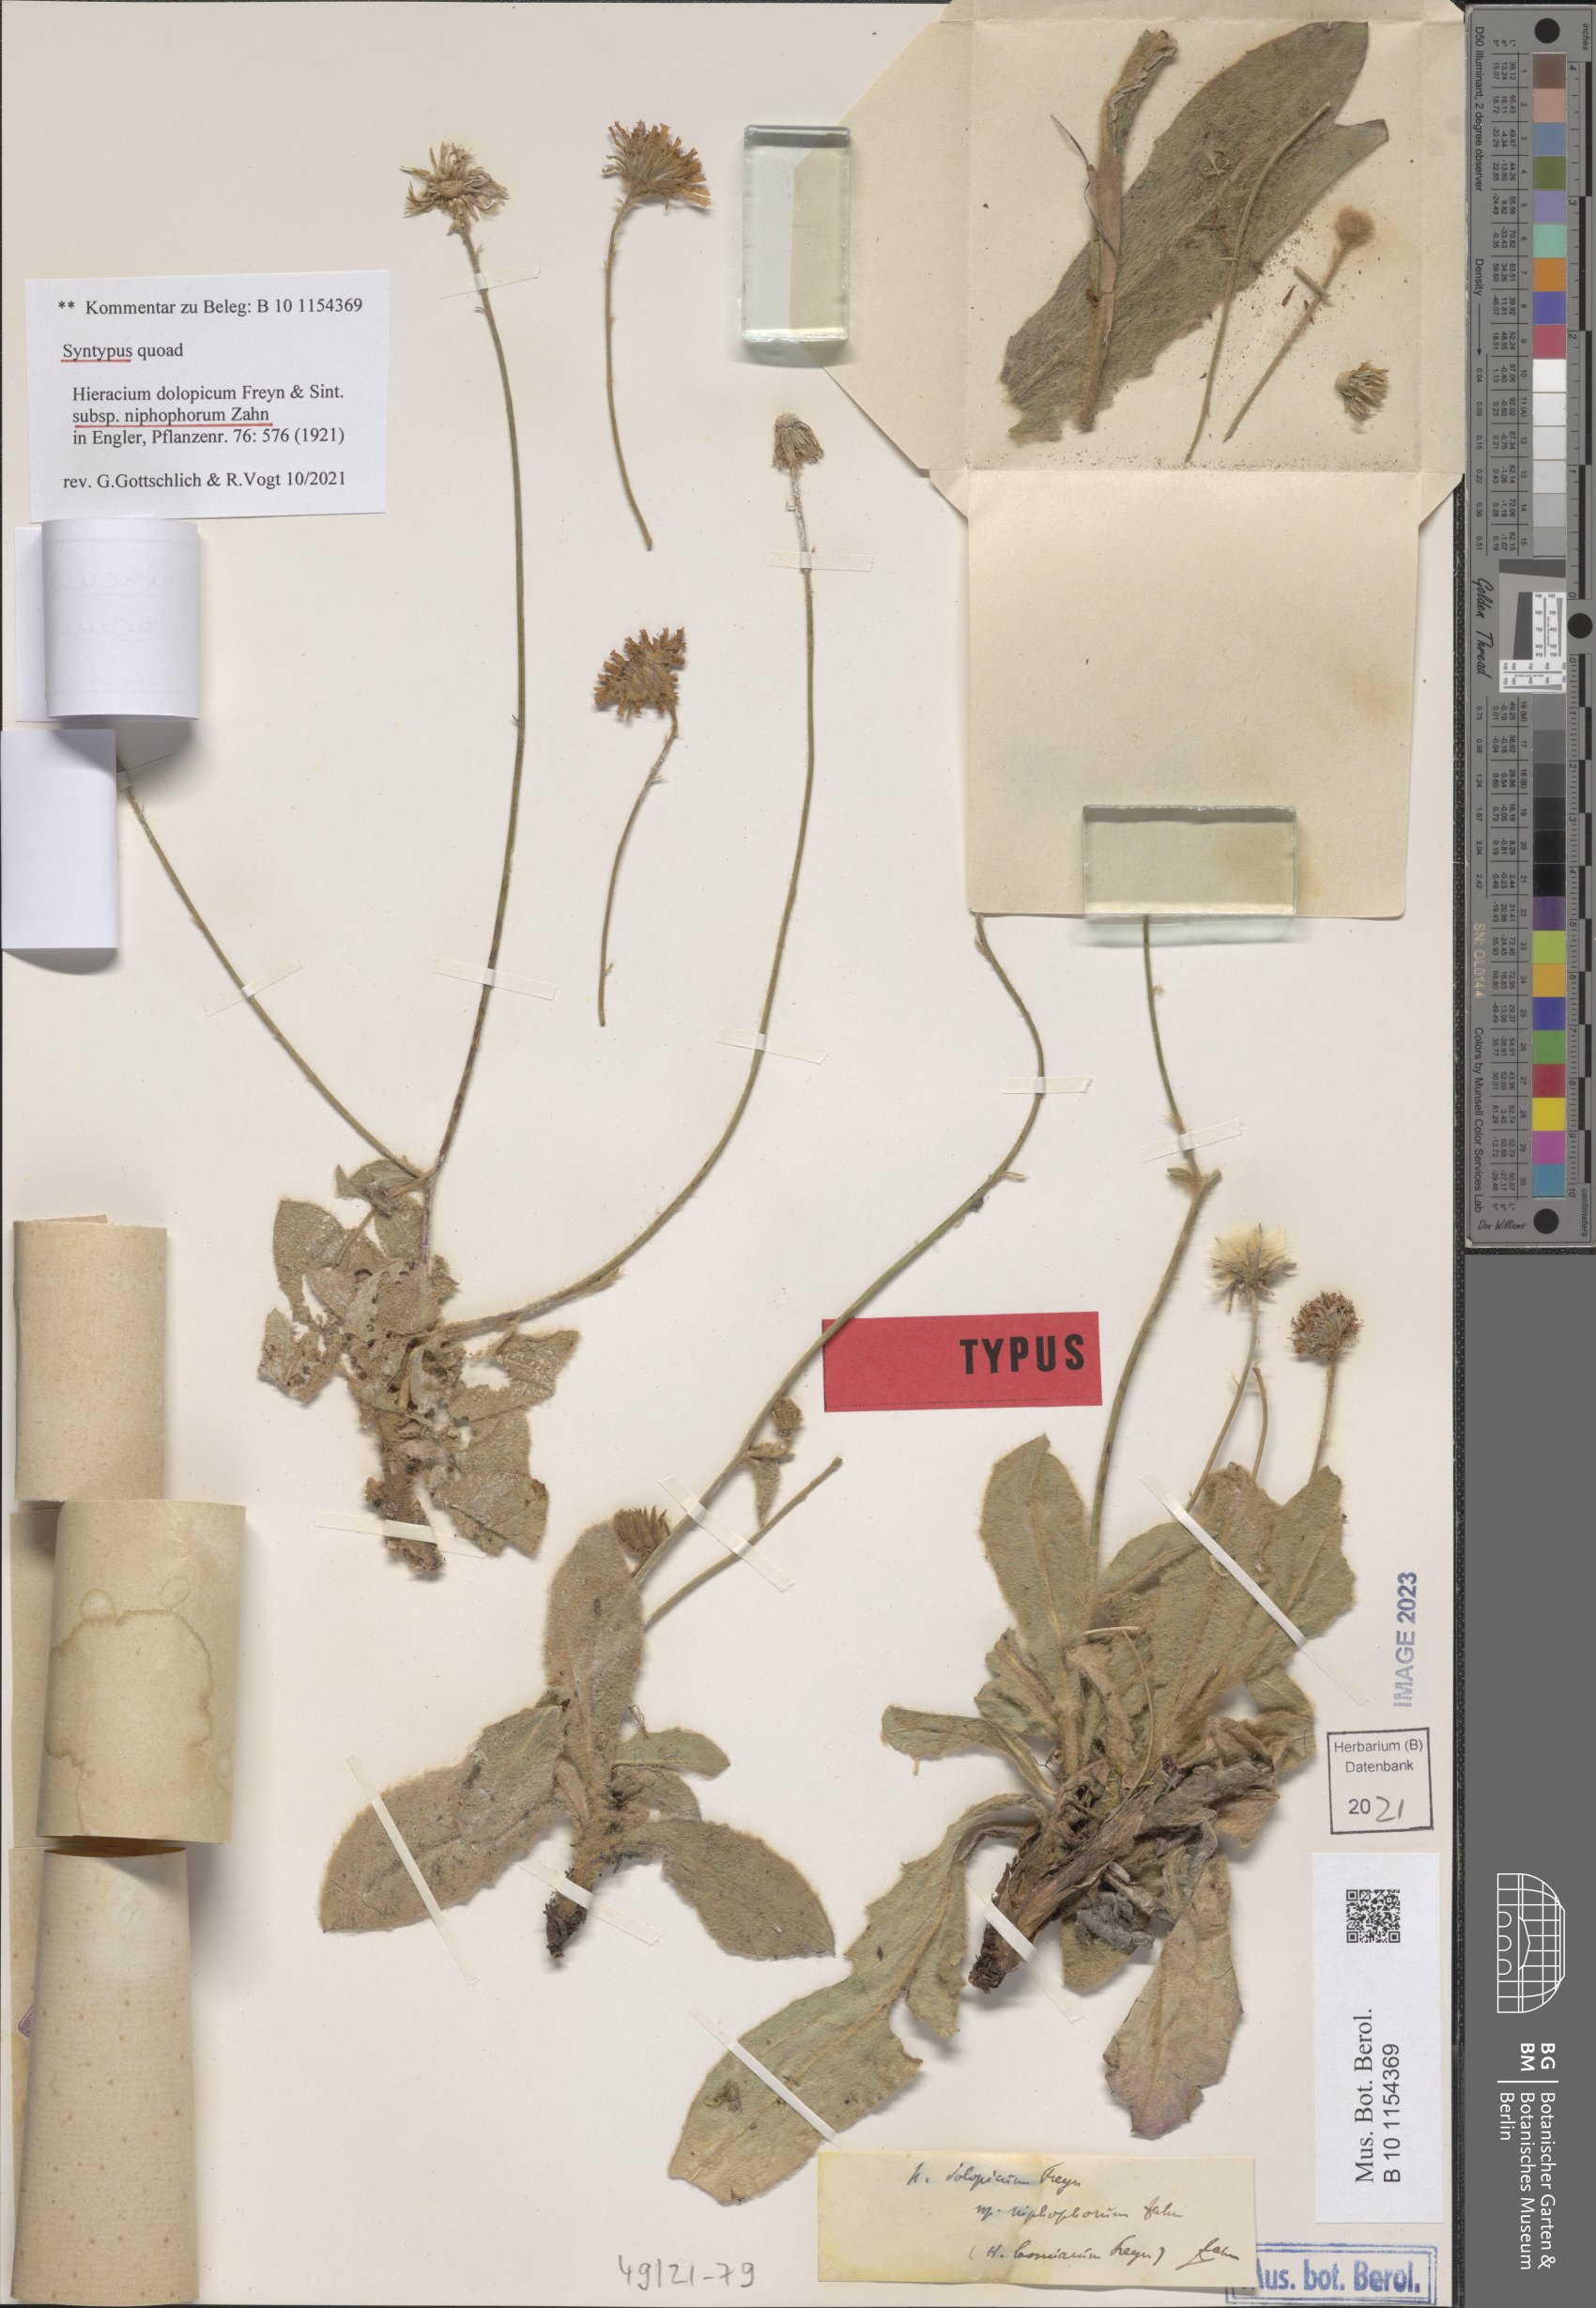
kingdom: Plantae
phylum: Tracheophyta
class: Magnoliopsida
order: Asterales
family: Asteraceae
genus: Hieracium
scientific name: Hieracium bosniacum
